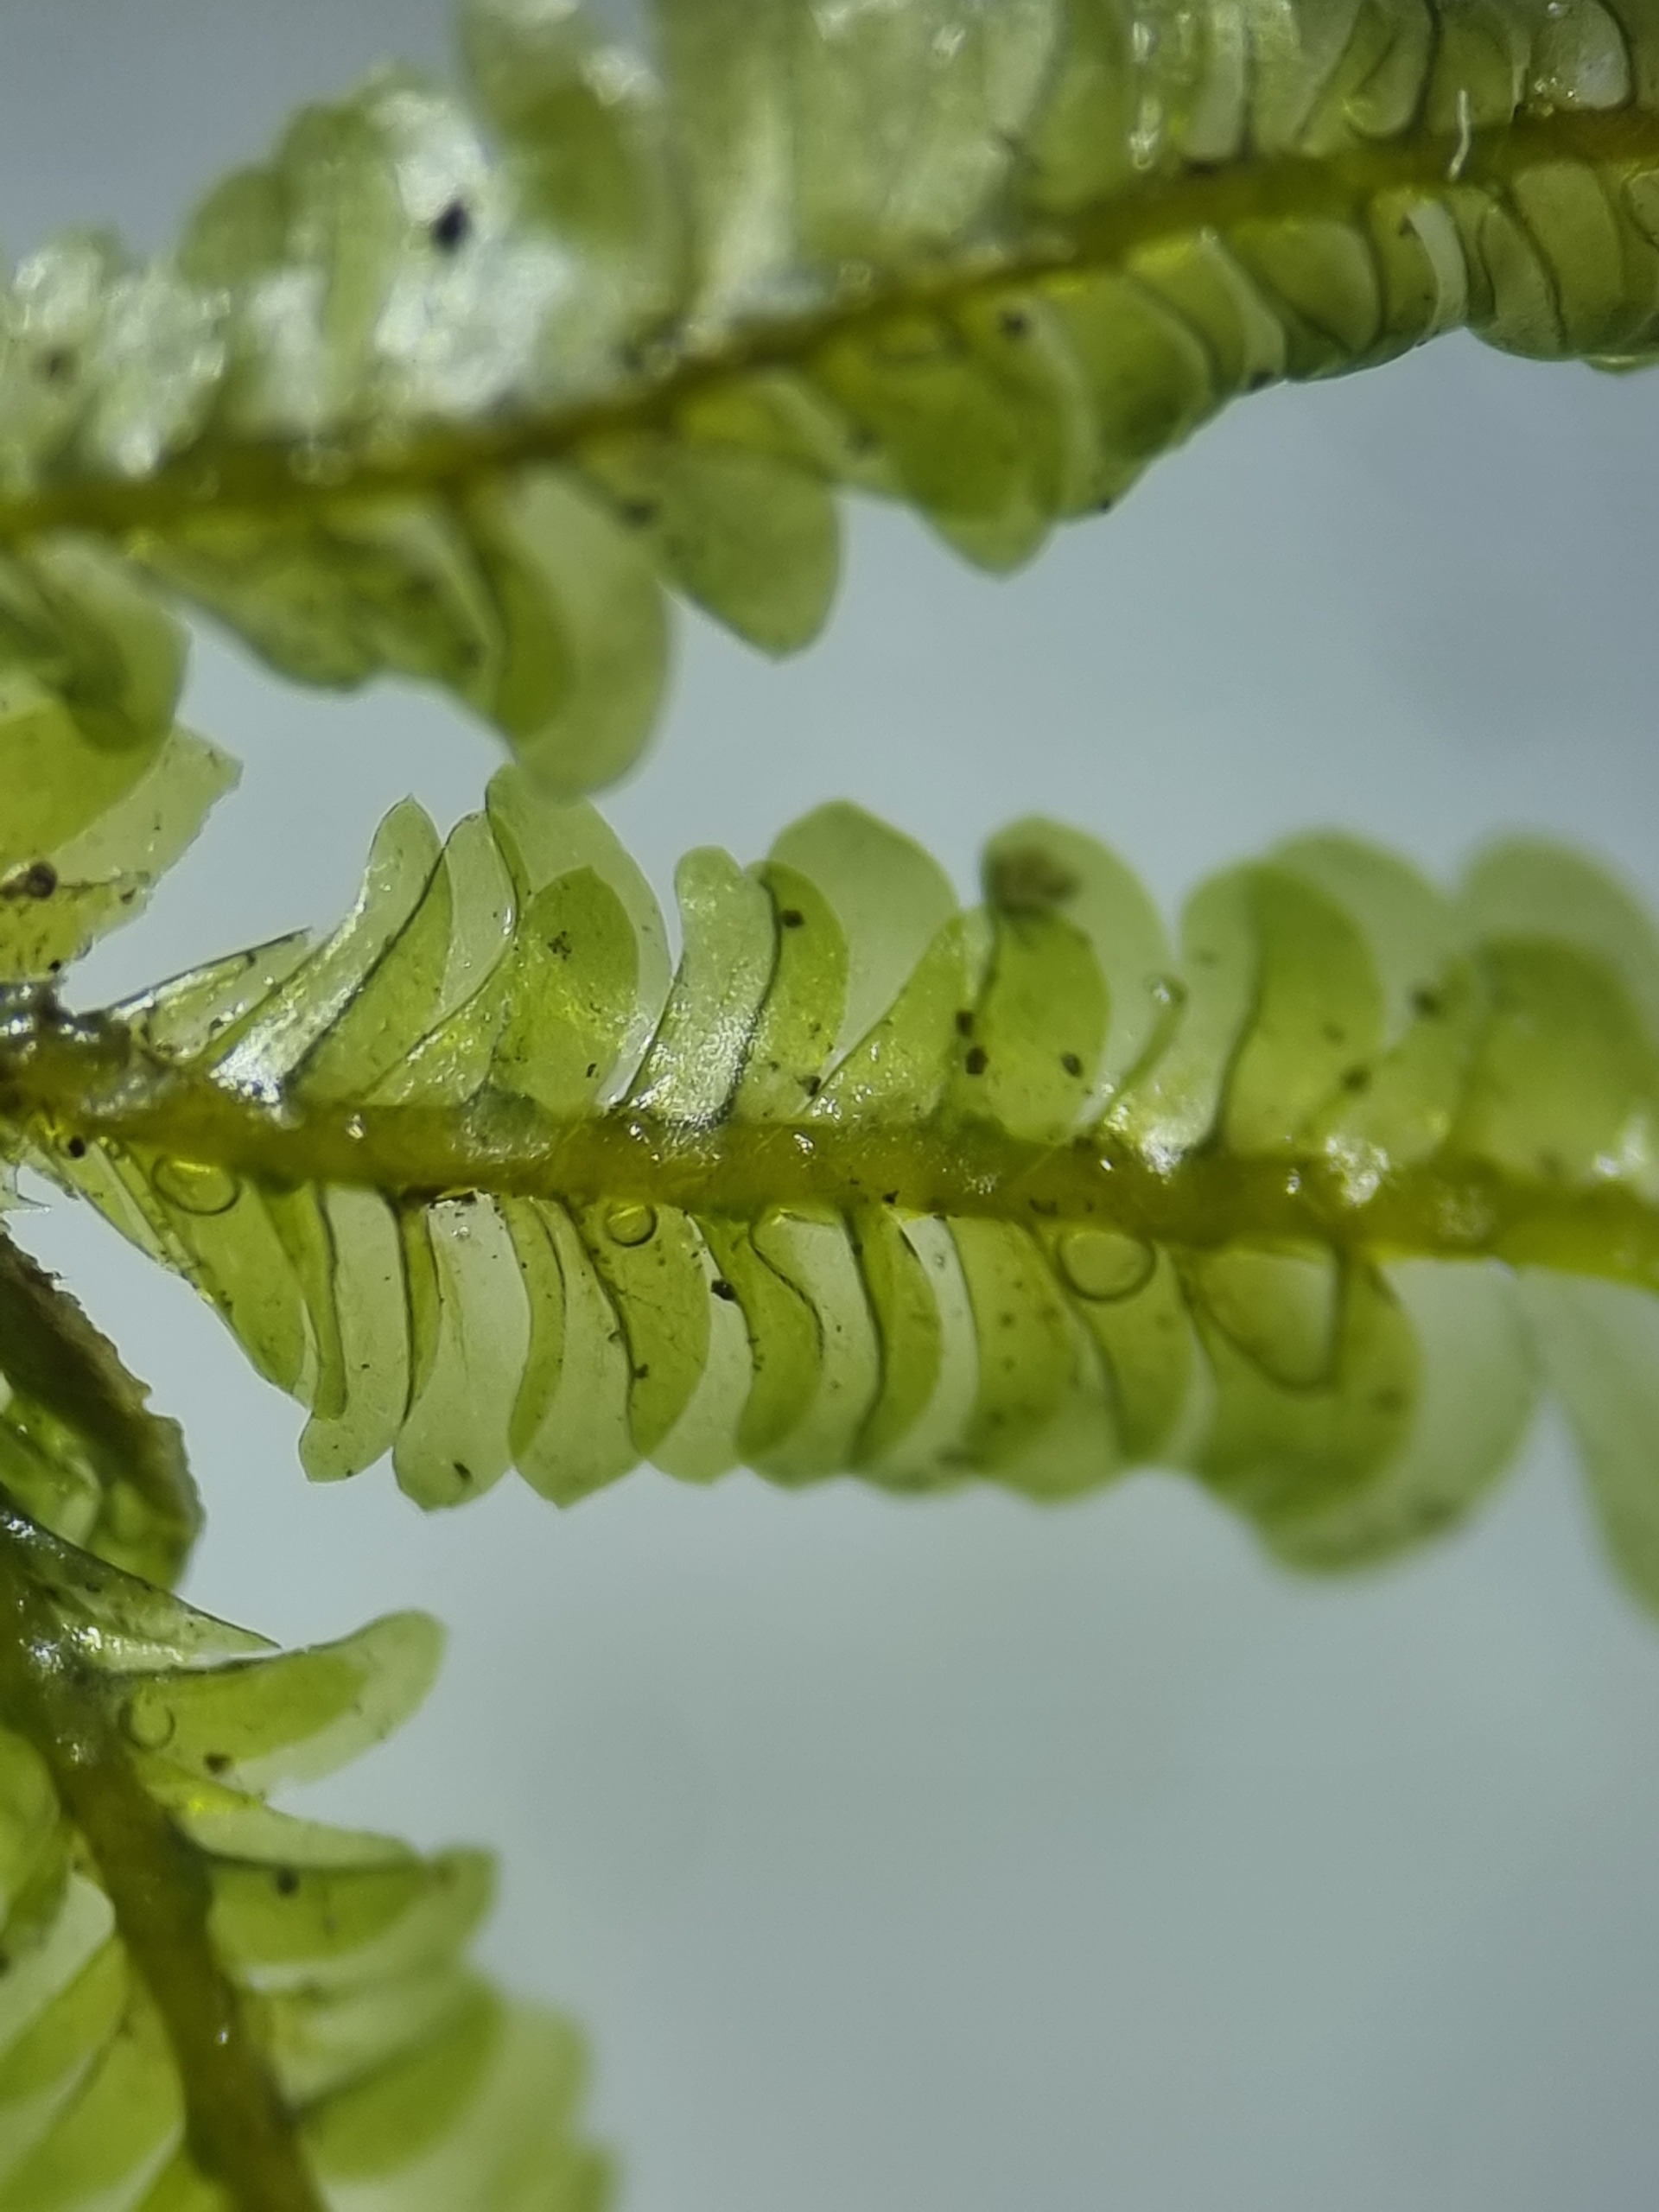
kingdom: Plantae
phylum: Bryophyta
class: Bryopsida
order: Hypnales
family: Neckeraceae
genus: Homalia
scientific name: Homalia trichomanoides
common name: Skov-tungemos
